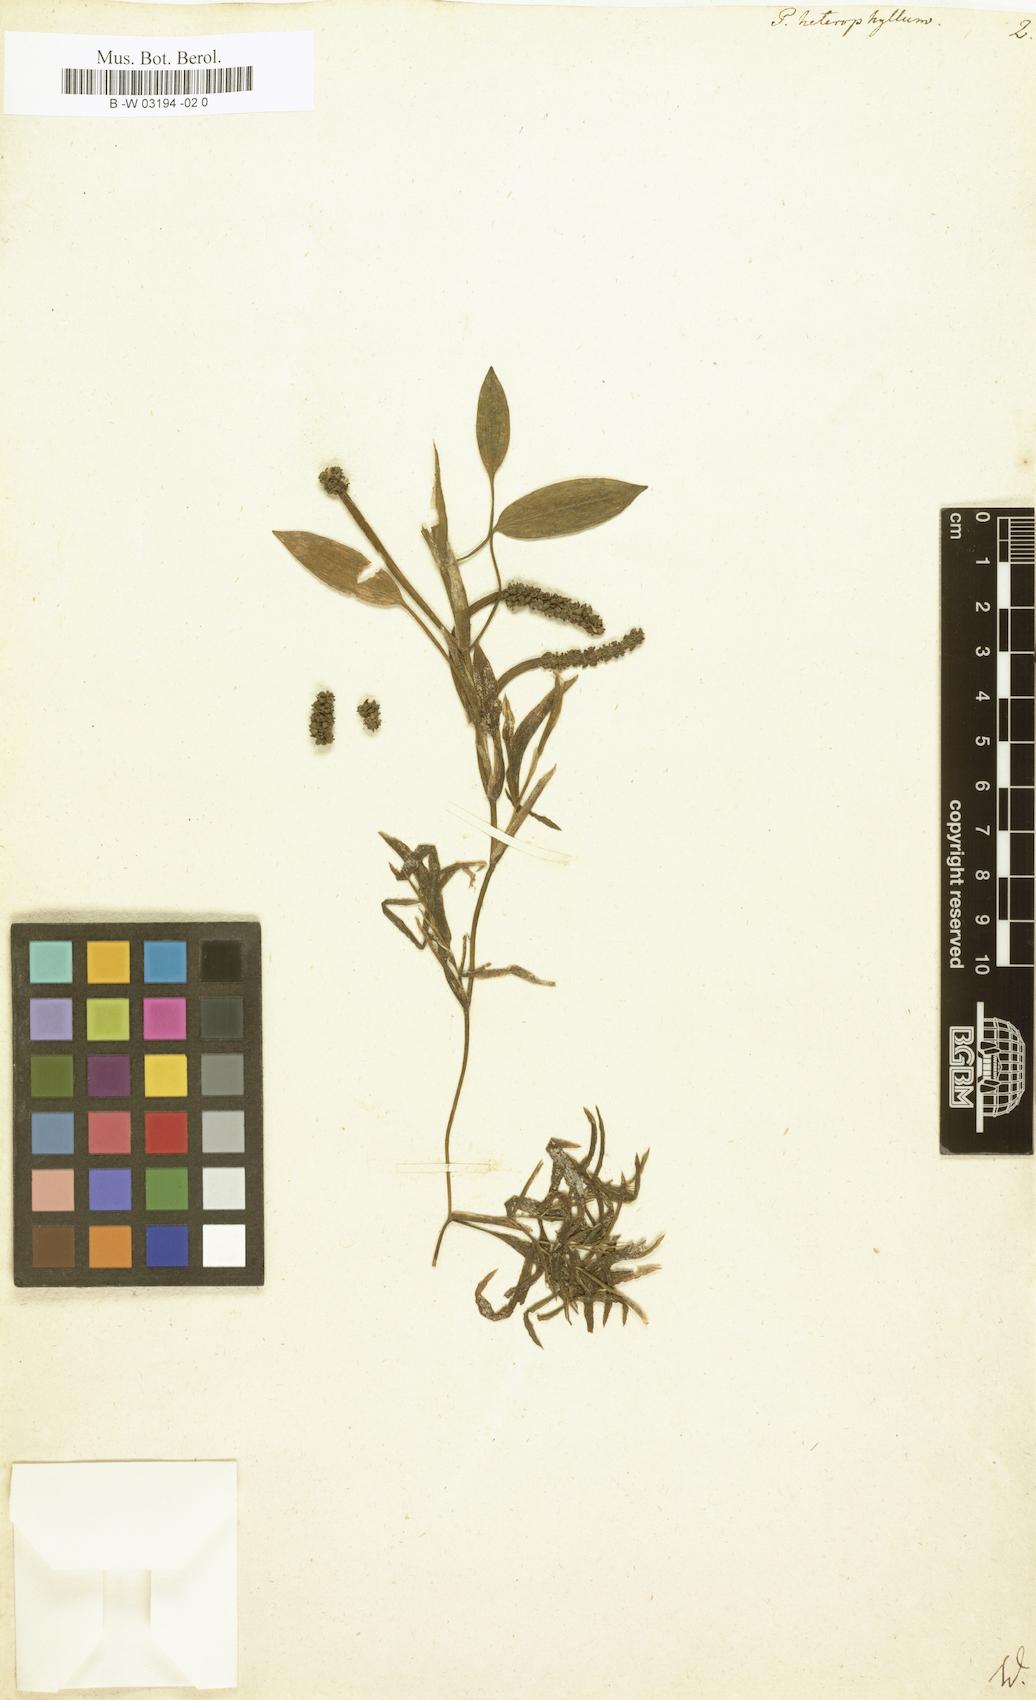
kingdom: Plantae
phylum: Tracheophyta
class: Liliopsida
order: Alismatales
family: Potamogetonaceae
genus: Potamogeton
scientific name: Potamogeton heterophyllus
